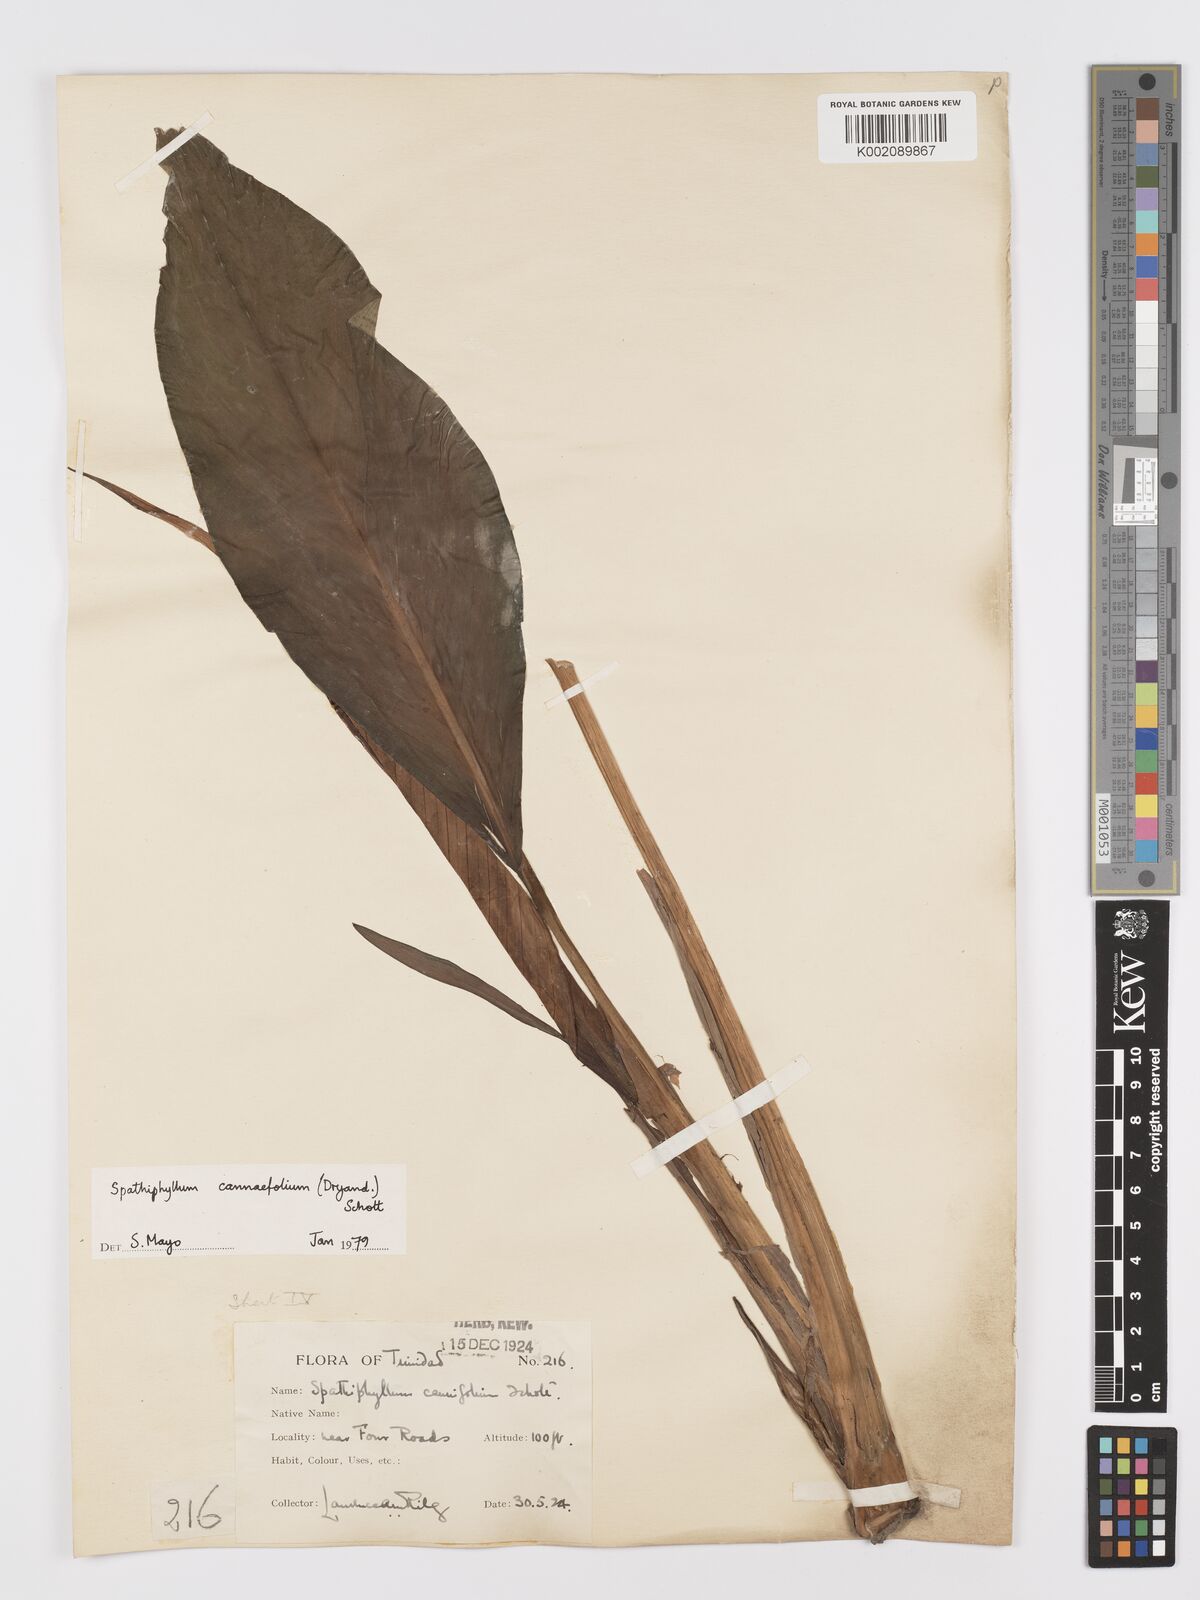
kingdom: Plantae
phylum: Tracheophyta
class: Liliopsida
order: Alismatales
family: Araceae
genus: Spathiphyllum
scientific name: Spathiphyllum cannifolium
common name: Spatheflower
